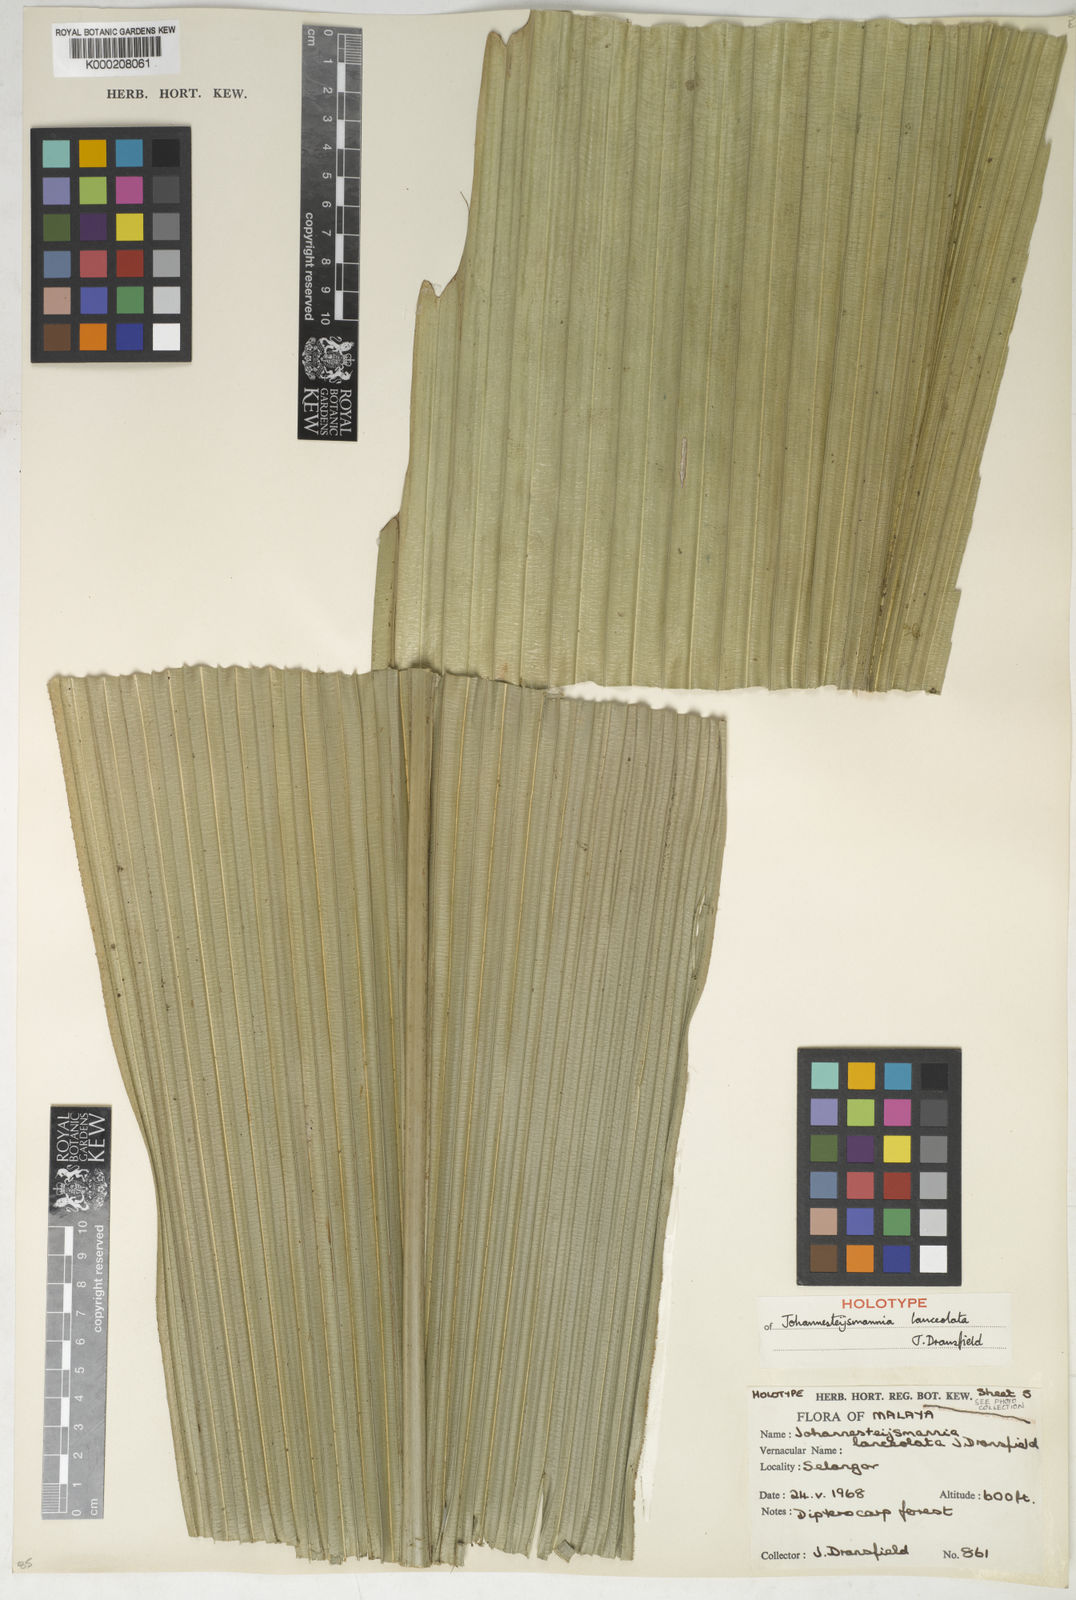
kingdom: Plantae
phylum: Tracheophyta
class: Liliopsida
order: Arecales
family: Arecaceae
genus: Johannesteijsmannia
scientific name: Johannesteijsmannia lanceolata
